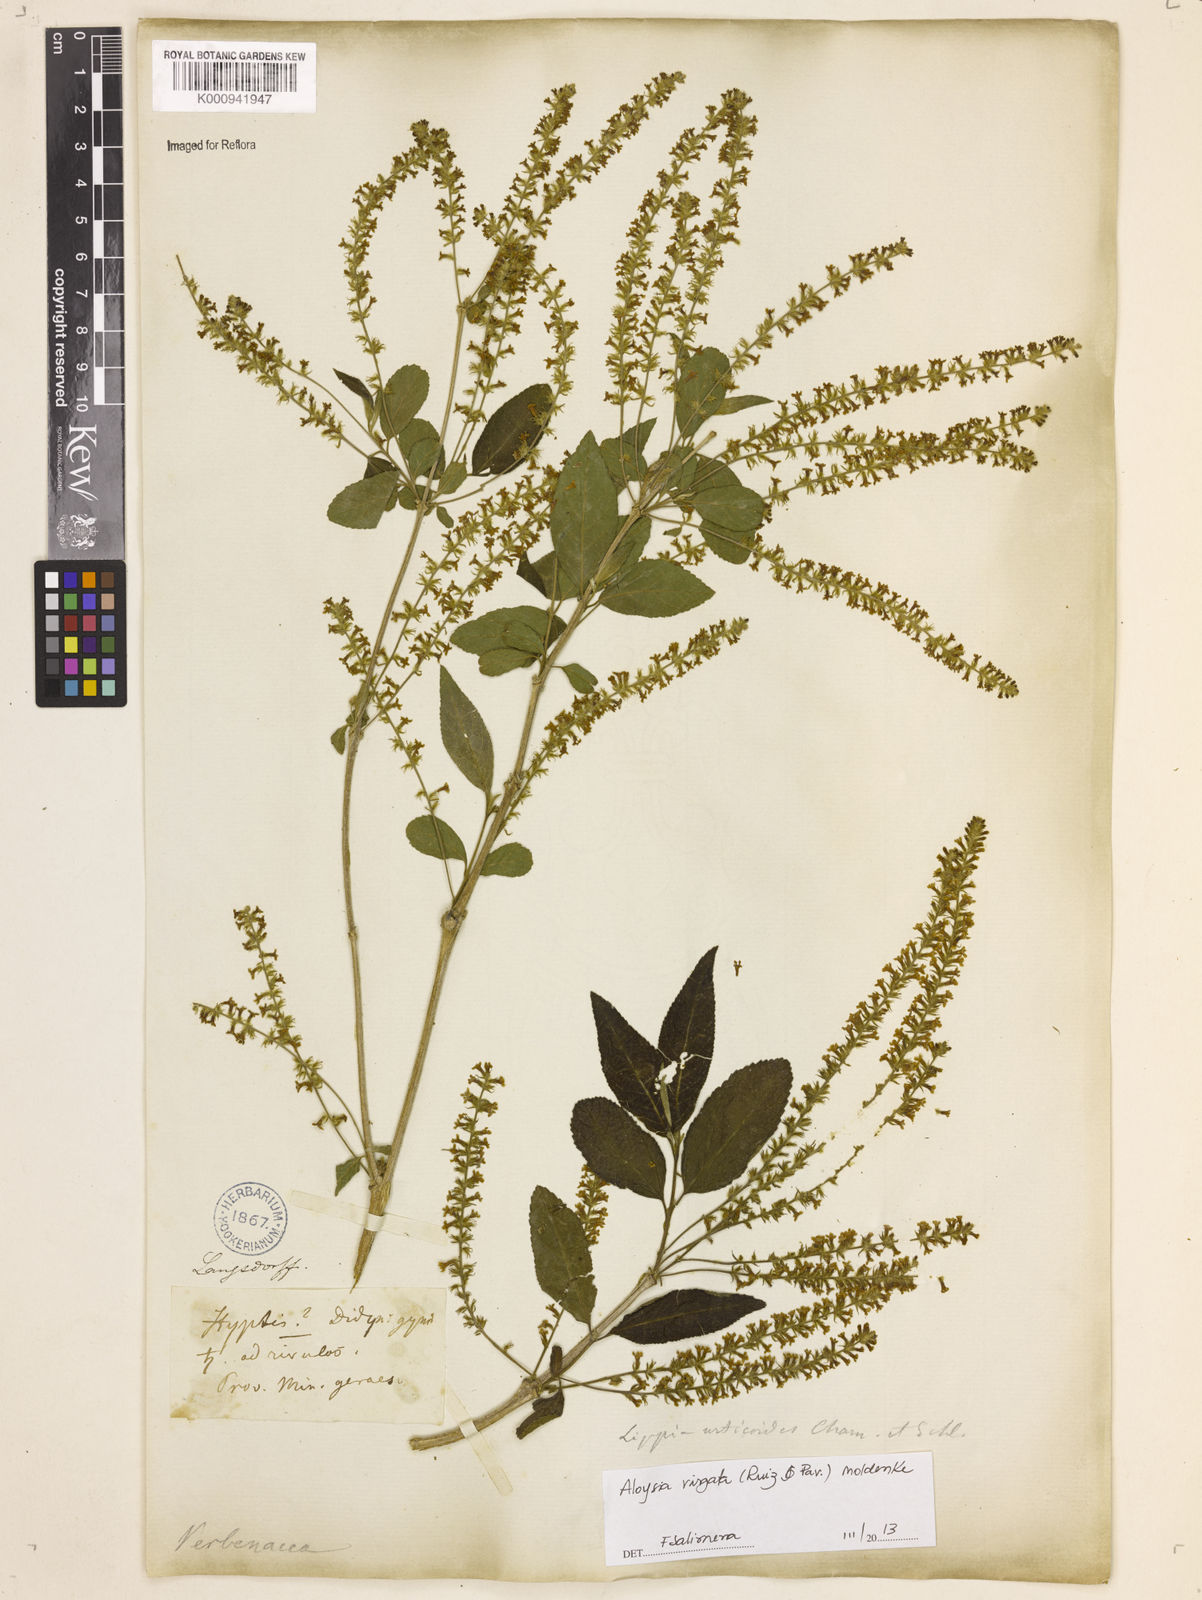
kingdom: Plantae
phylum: Tracheophyta
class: Magnoliopsida
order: Lamiales
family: Verbenaceae
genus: Aloysia
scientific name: Aloysia
